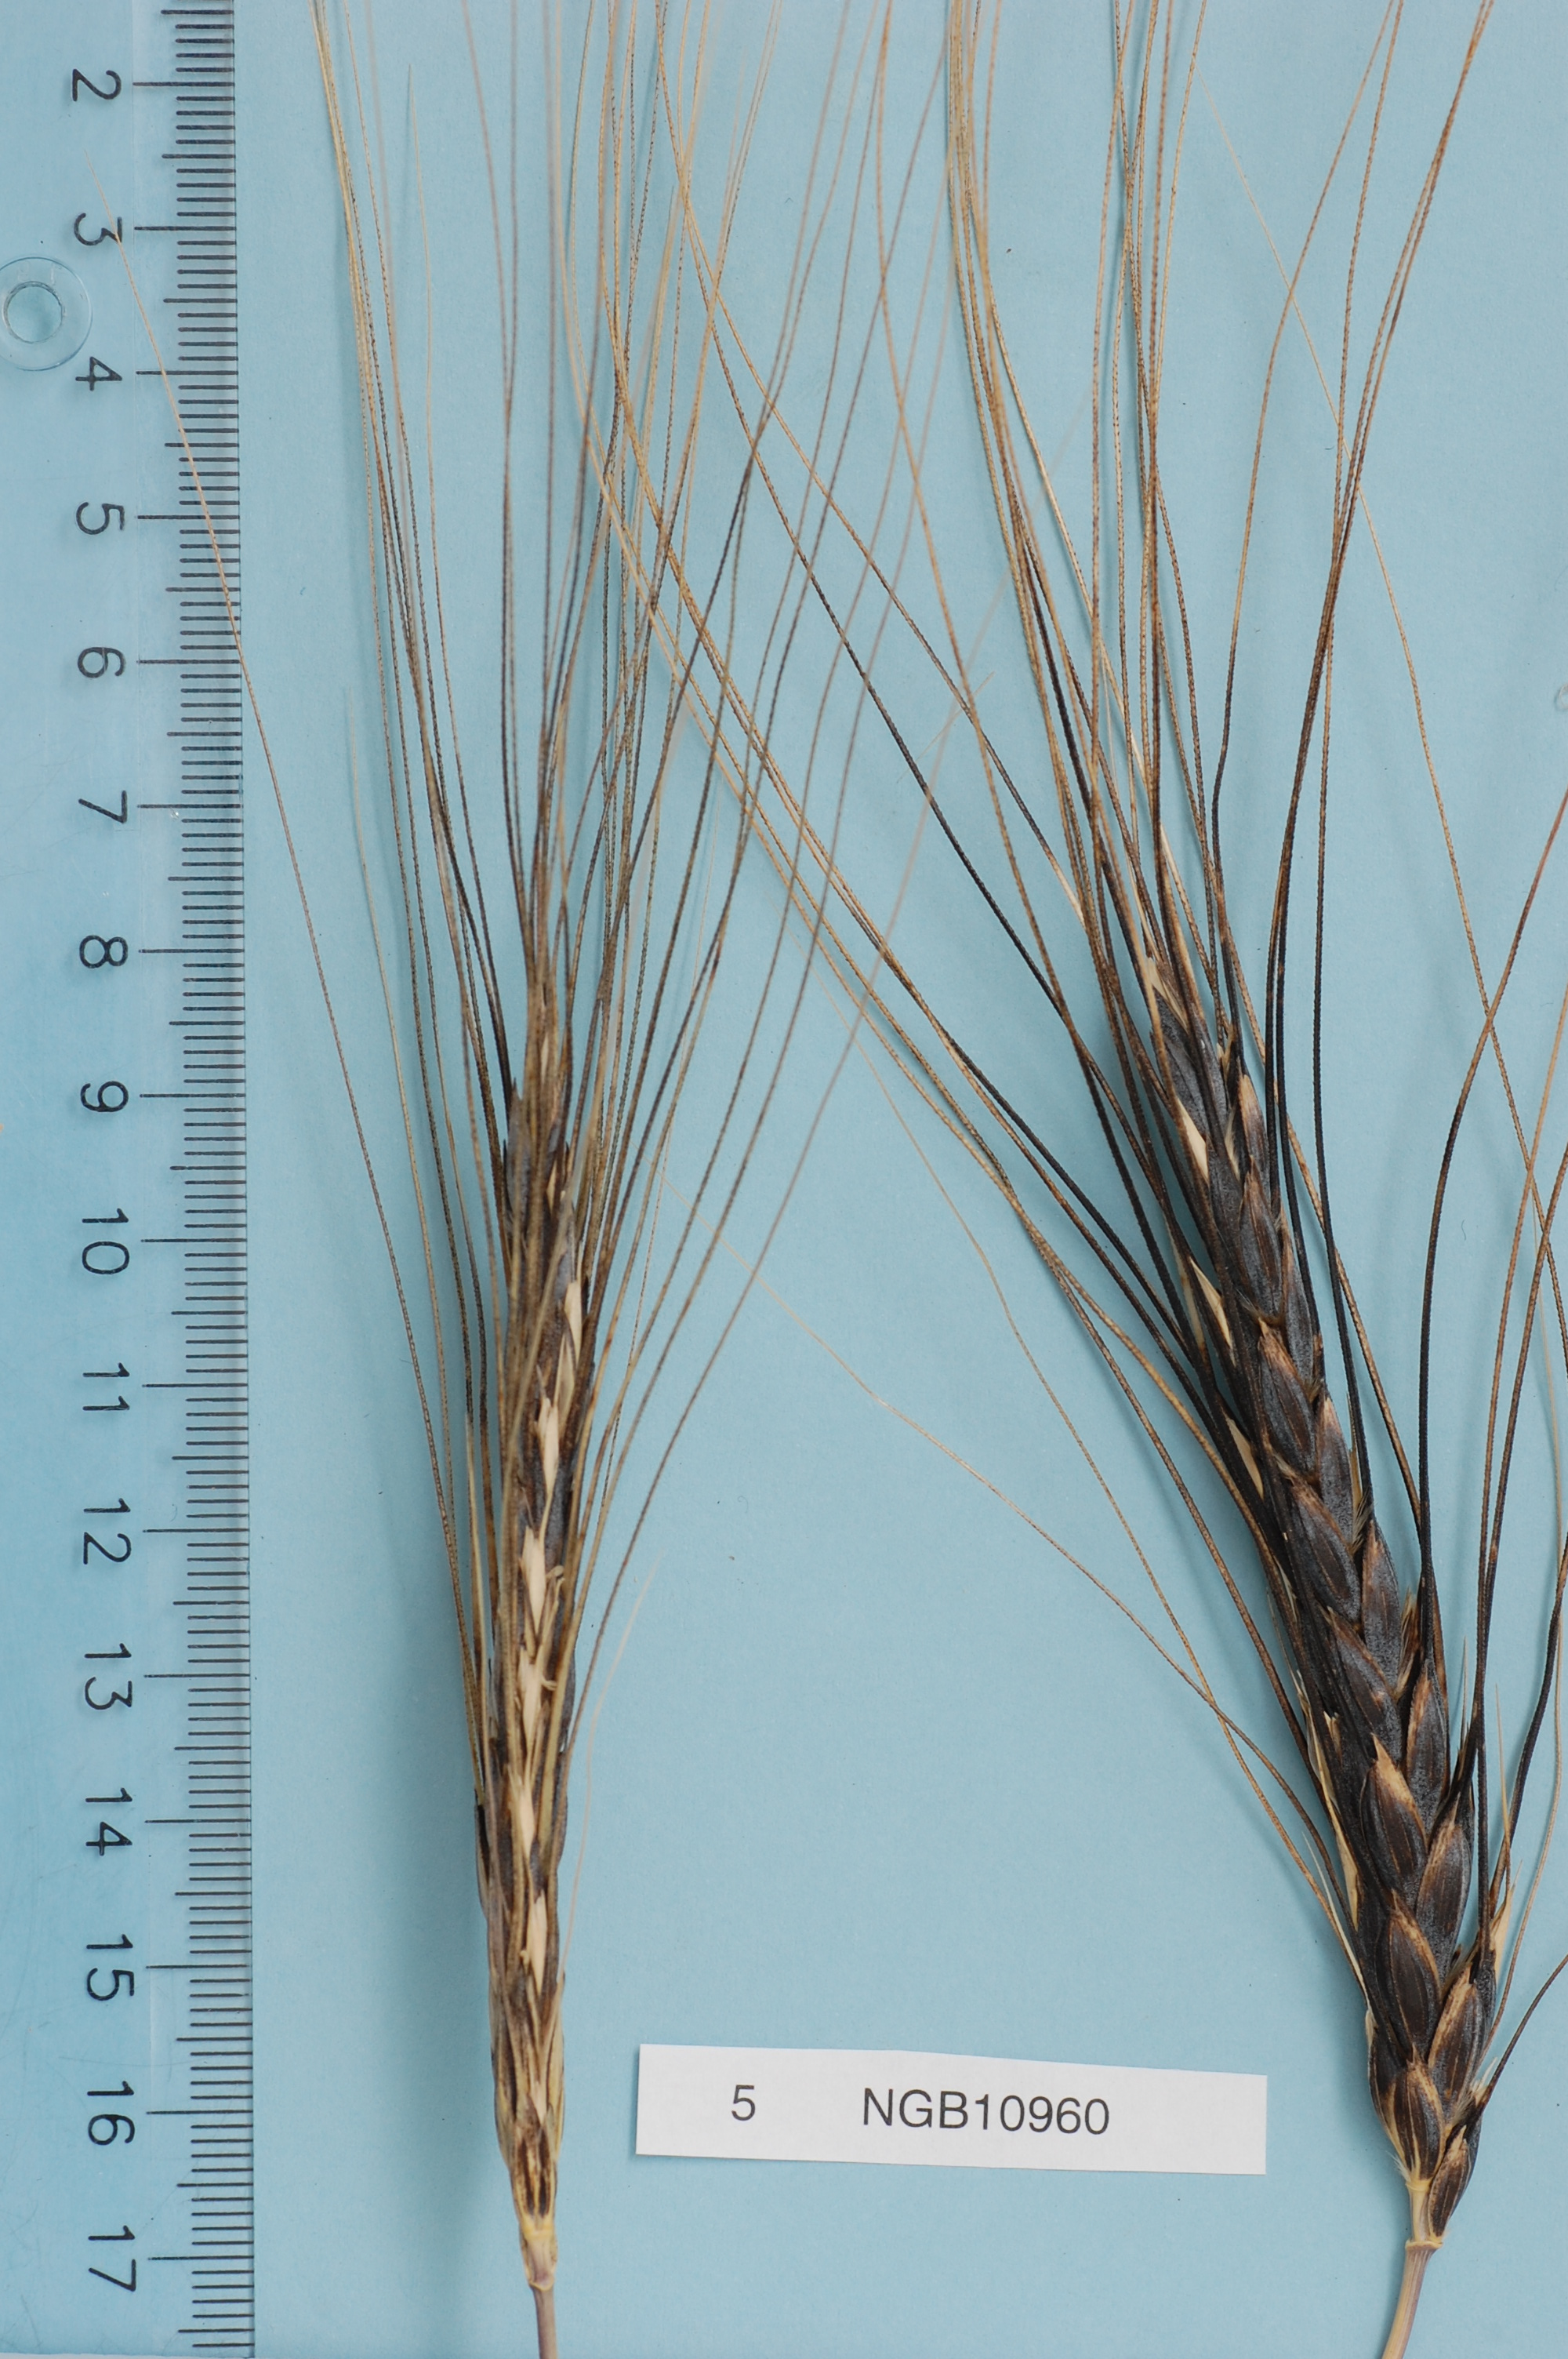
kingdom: Plantae
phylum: Tracheophyta
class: Liliopsida
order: Poales
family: Poaceae
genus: Triticum
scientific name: Triticum turgidum
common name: Rivet wheat
